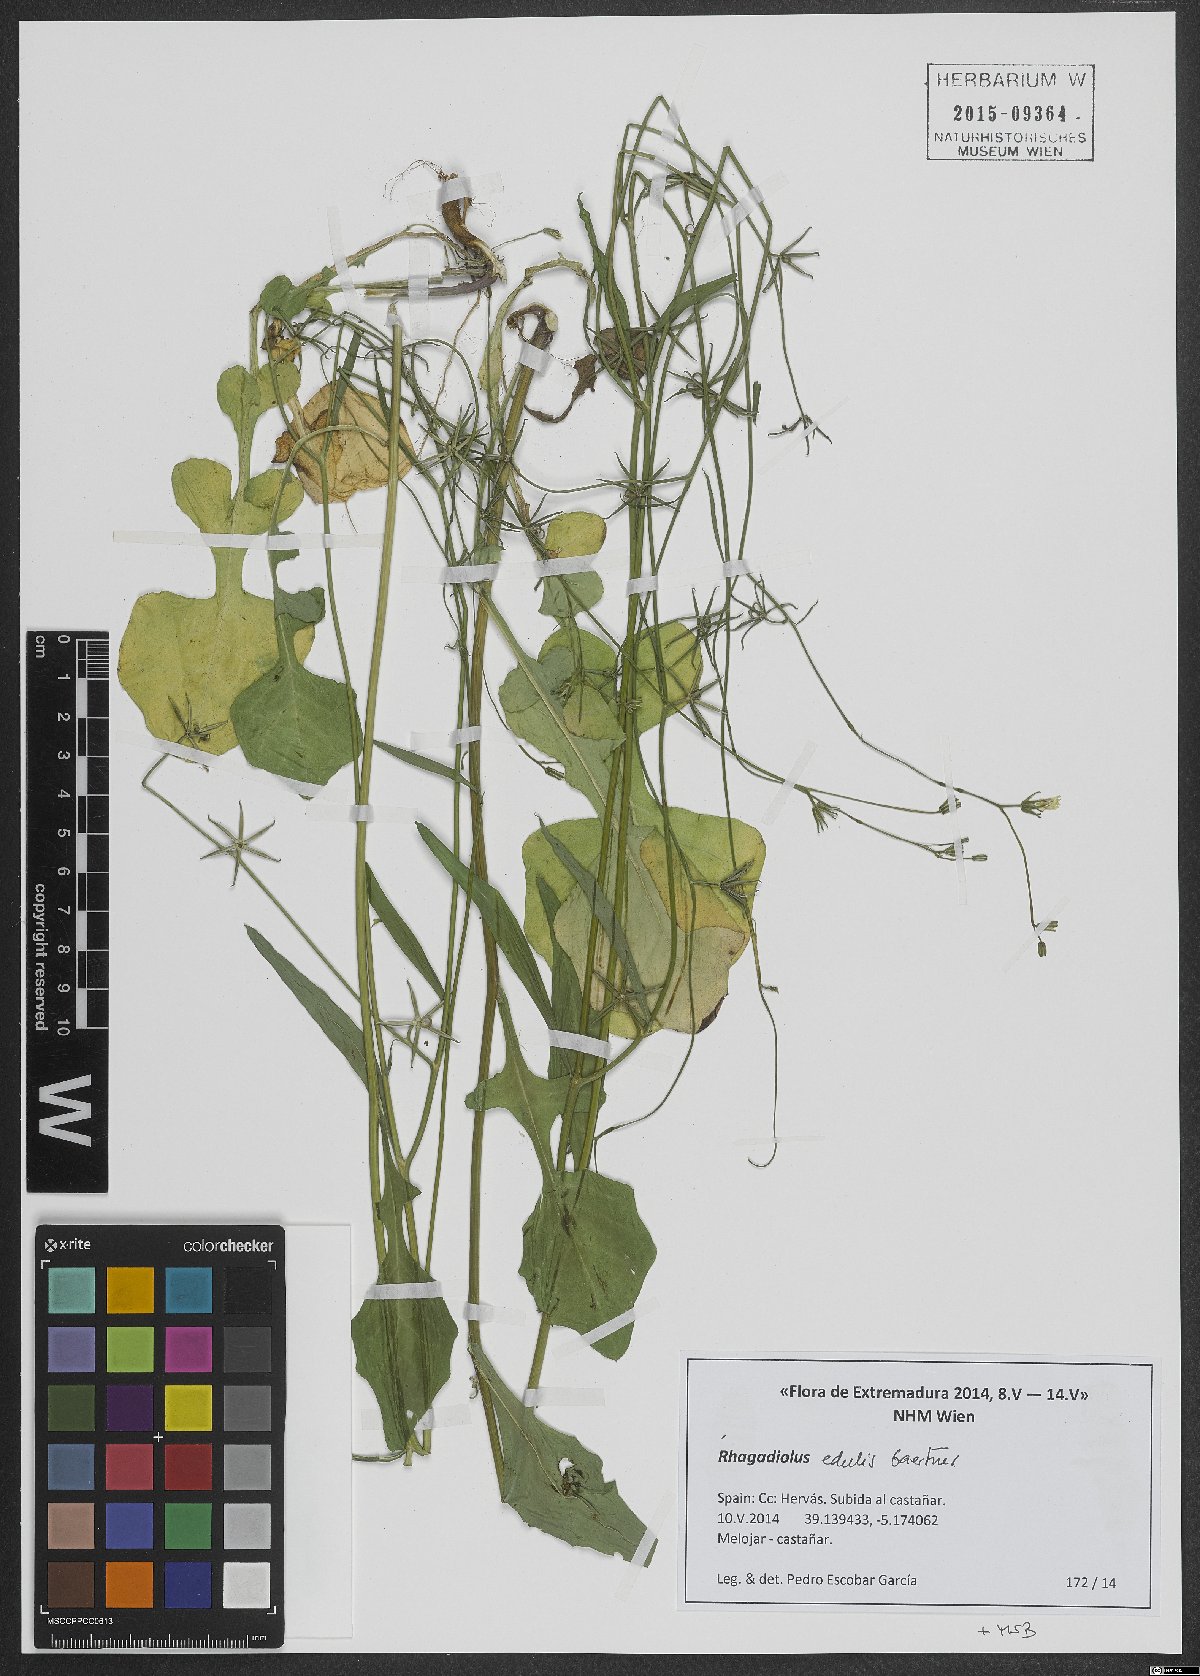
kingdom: Plantae
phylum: Tracheophyta
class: Magnoliopsida
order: Asterales
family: Asteraceae
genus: Rhagadiolus
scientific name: Rhagadiolus edulis
